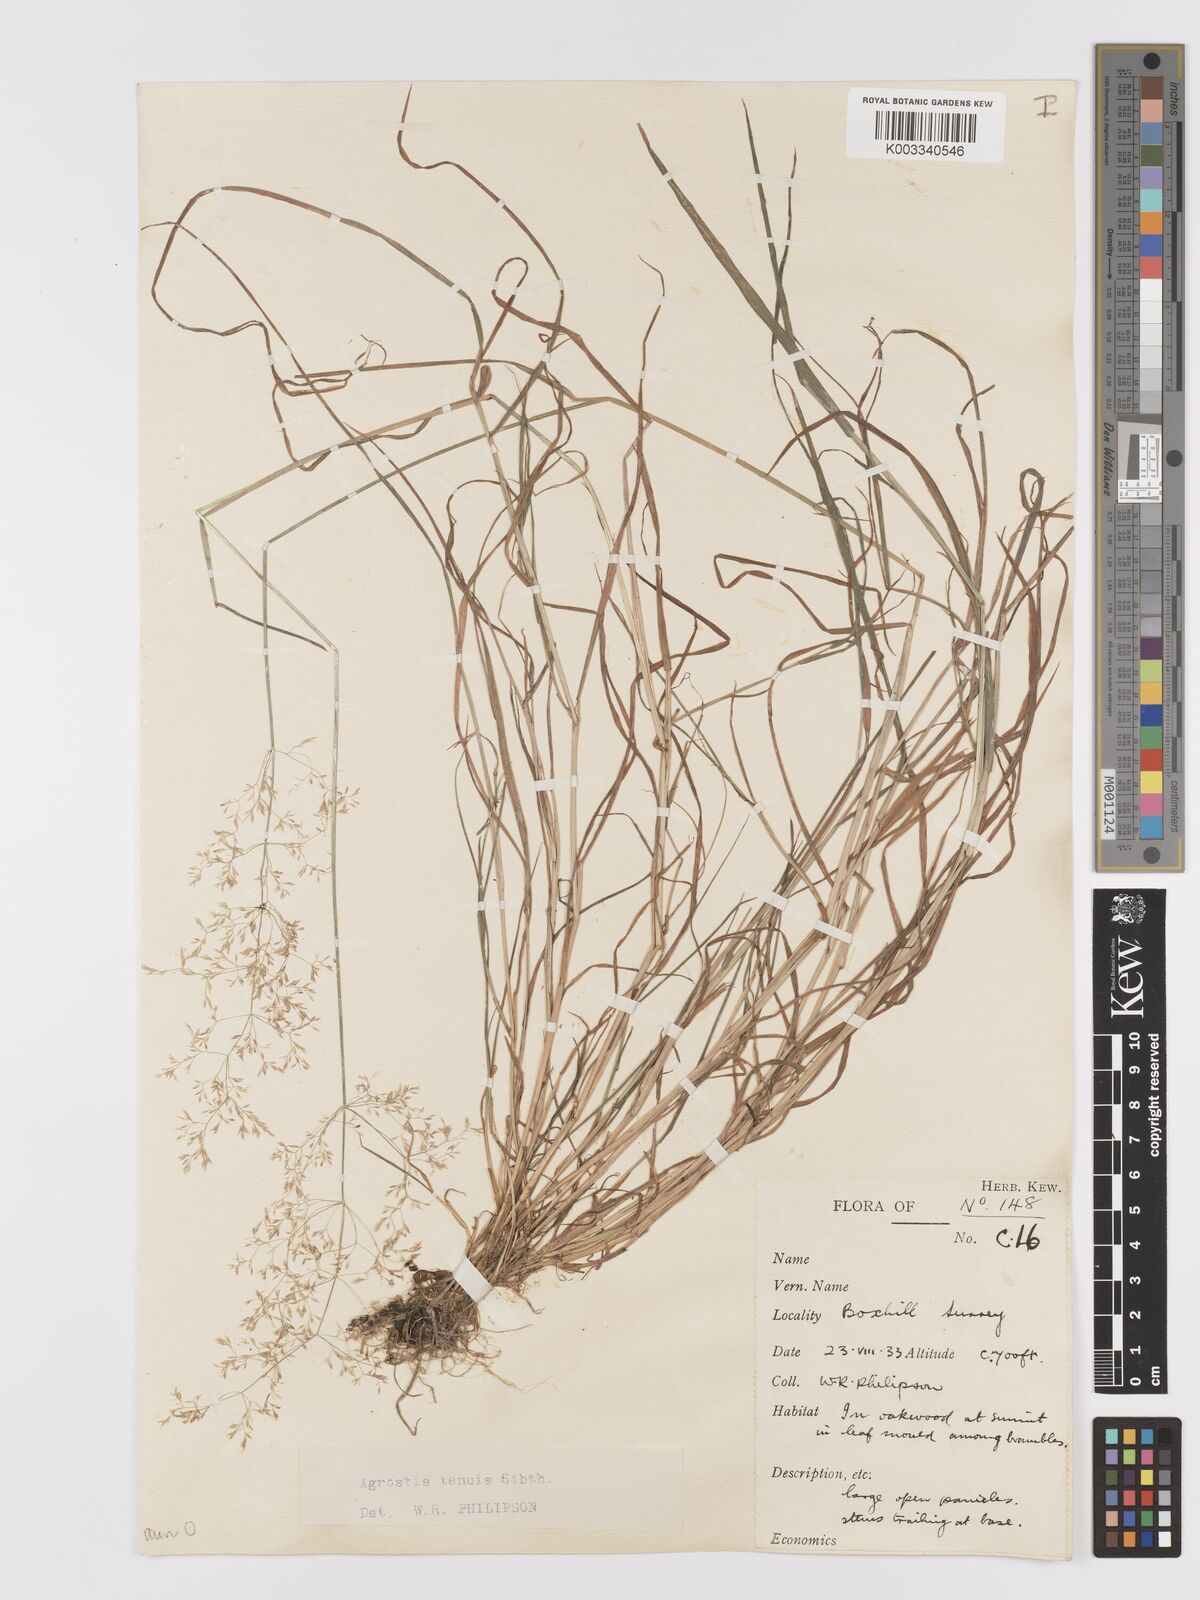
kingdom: Plantae
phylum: Tracheophyta
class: Liliopsida
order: Poales
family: Poaceae
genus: Agrostis
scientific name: Agrostis capillaris
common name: Colonial bentgrass
